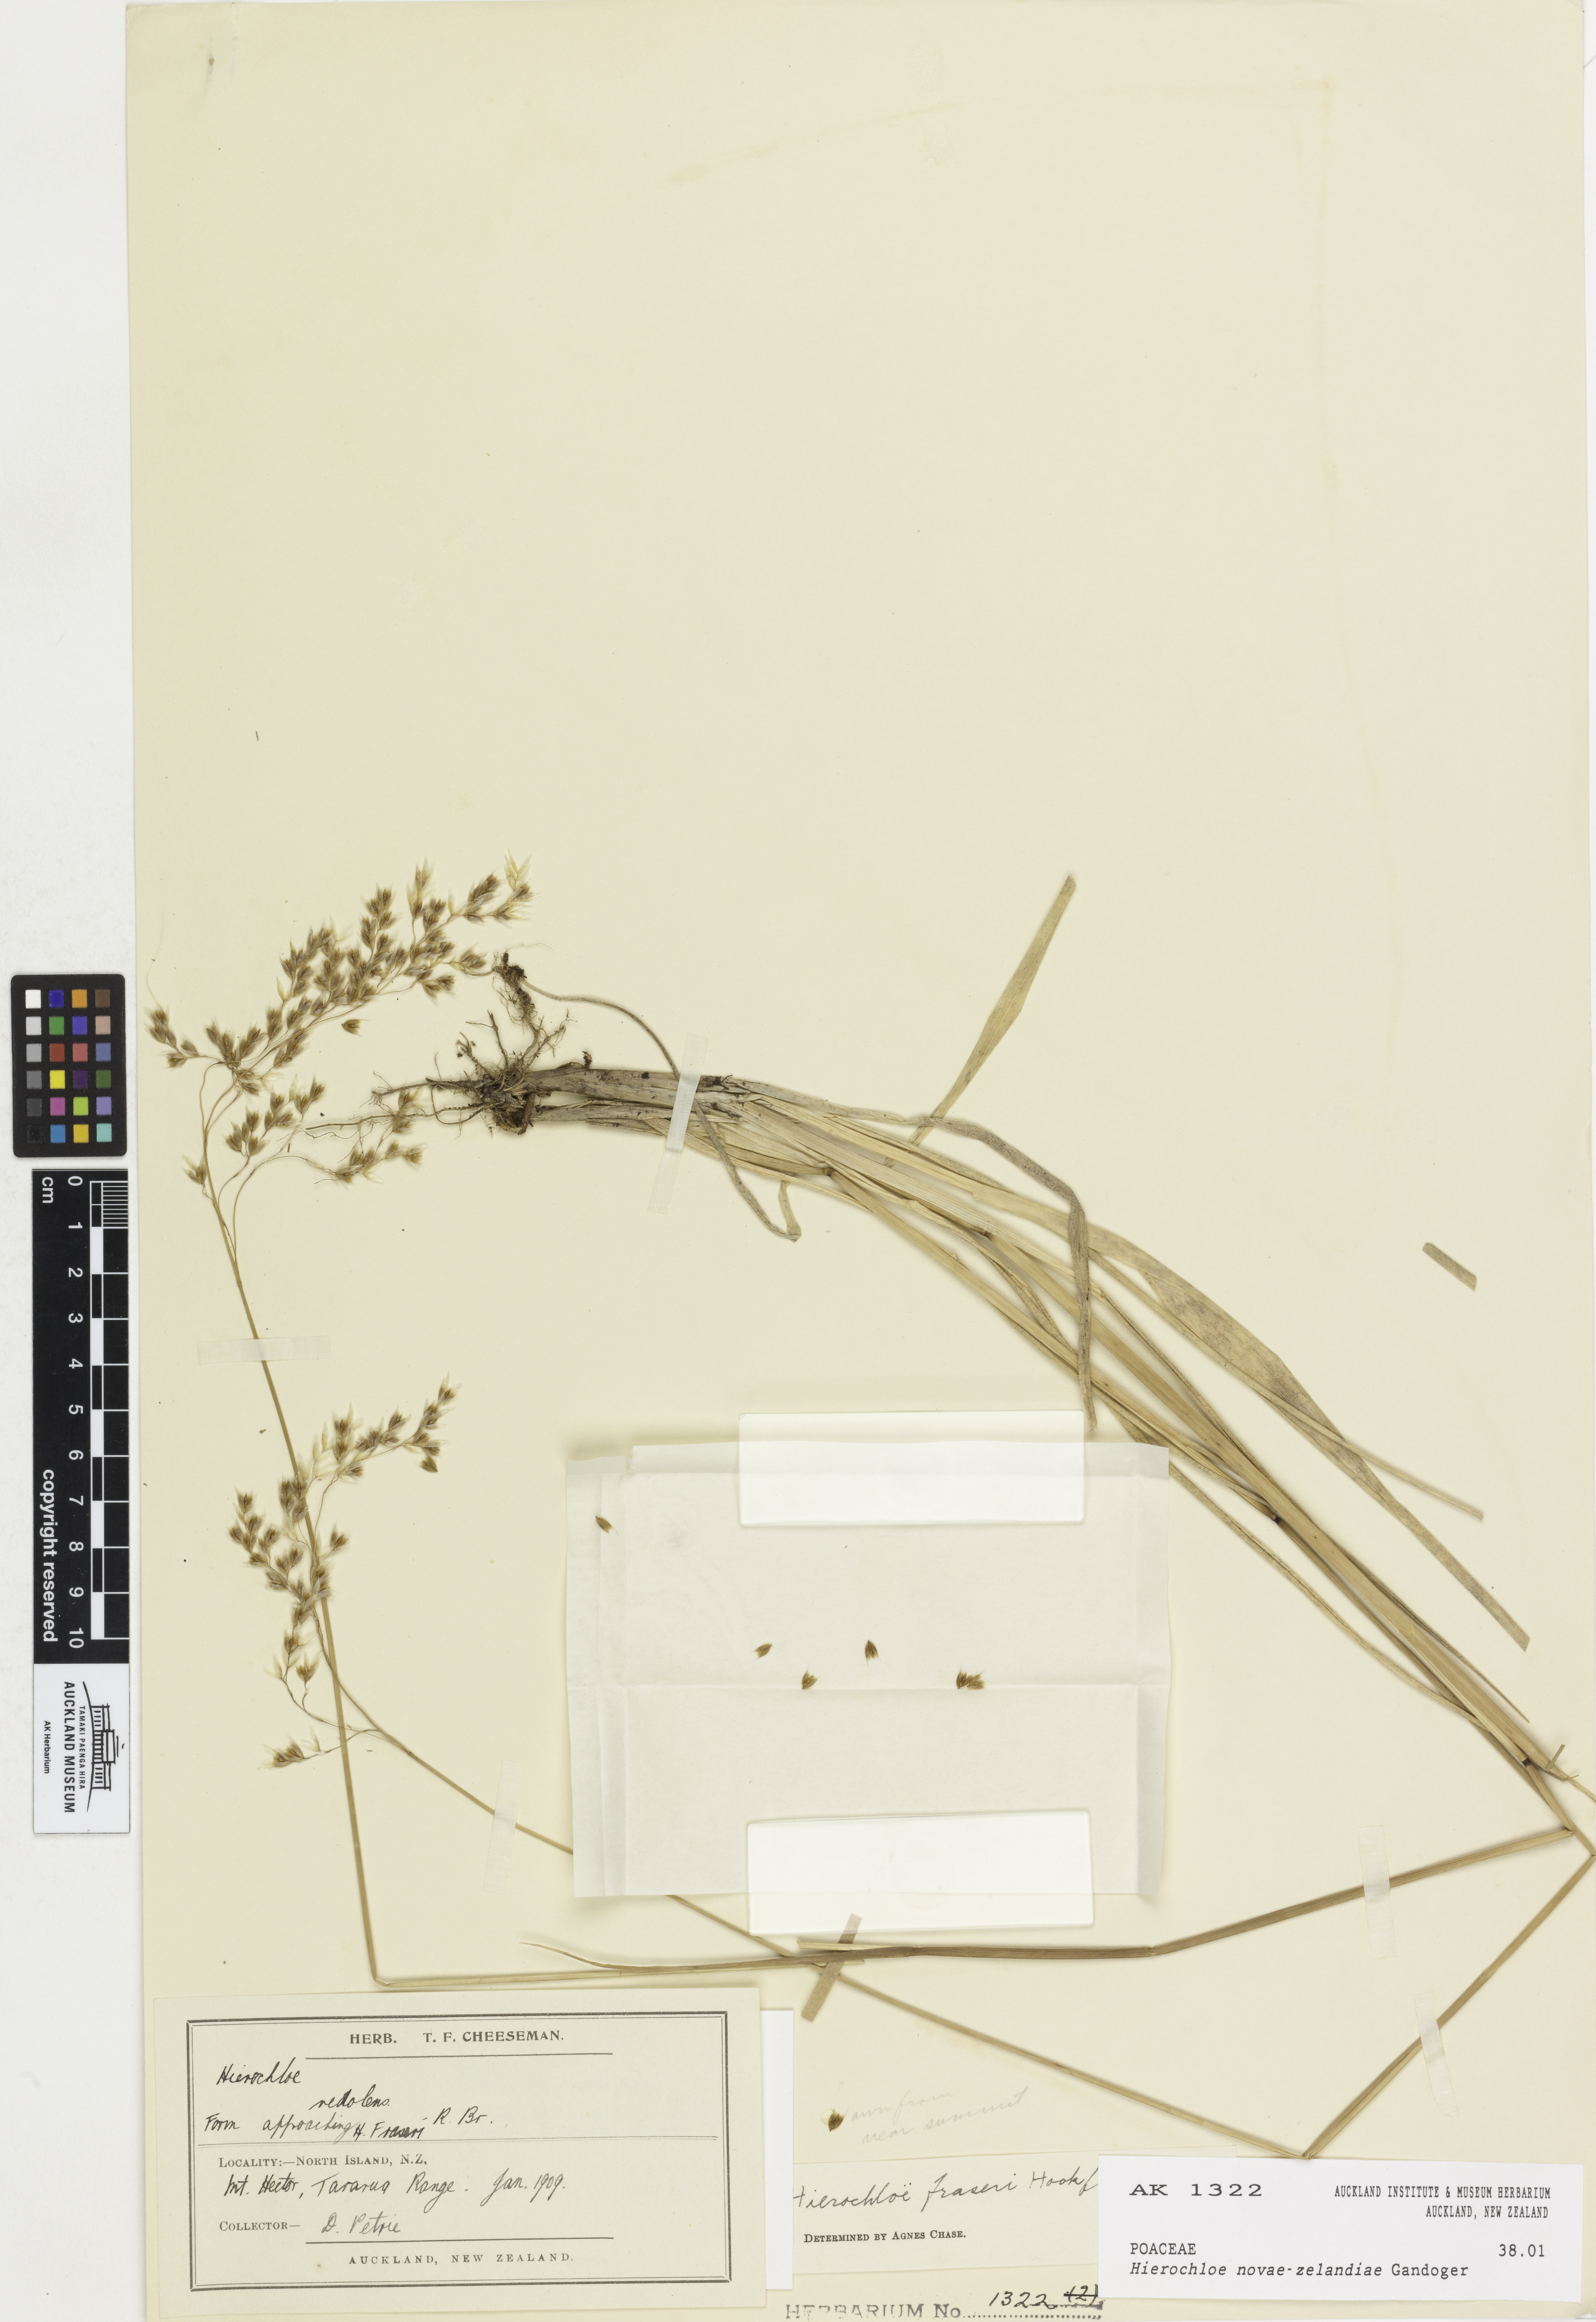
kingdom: Plantae
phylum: Tracheophyta
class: Liliopsida
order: Poales
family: Poaceae
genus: Anthoxanthum
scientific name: Anthoxanthum novae-zelandiae
